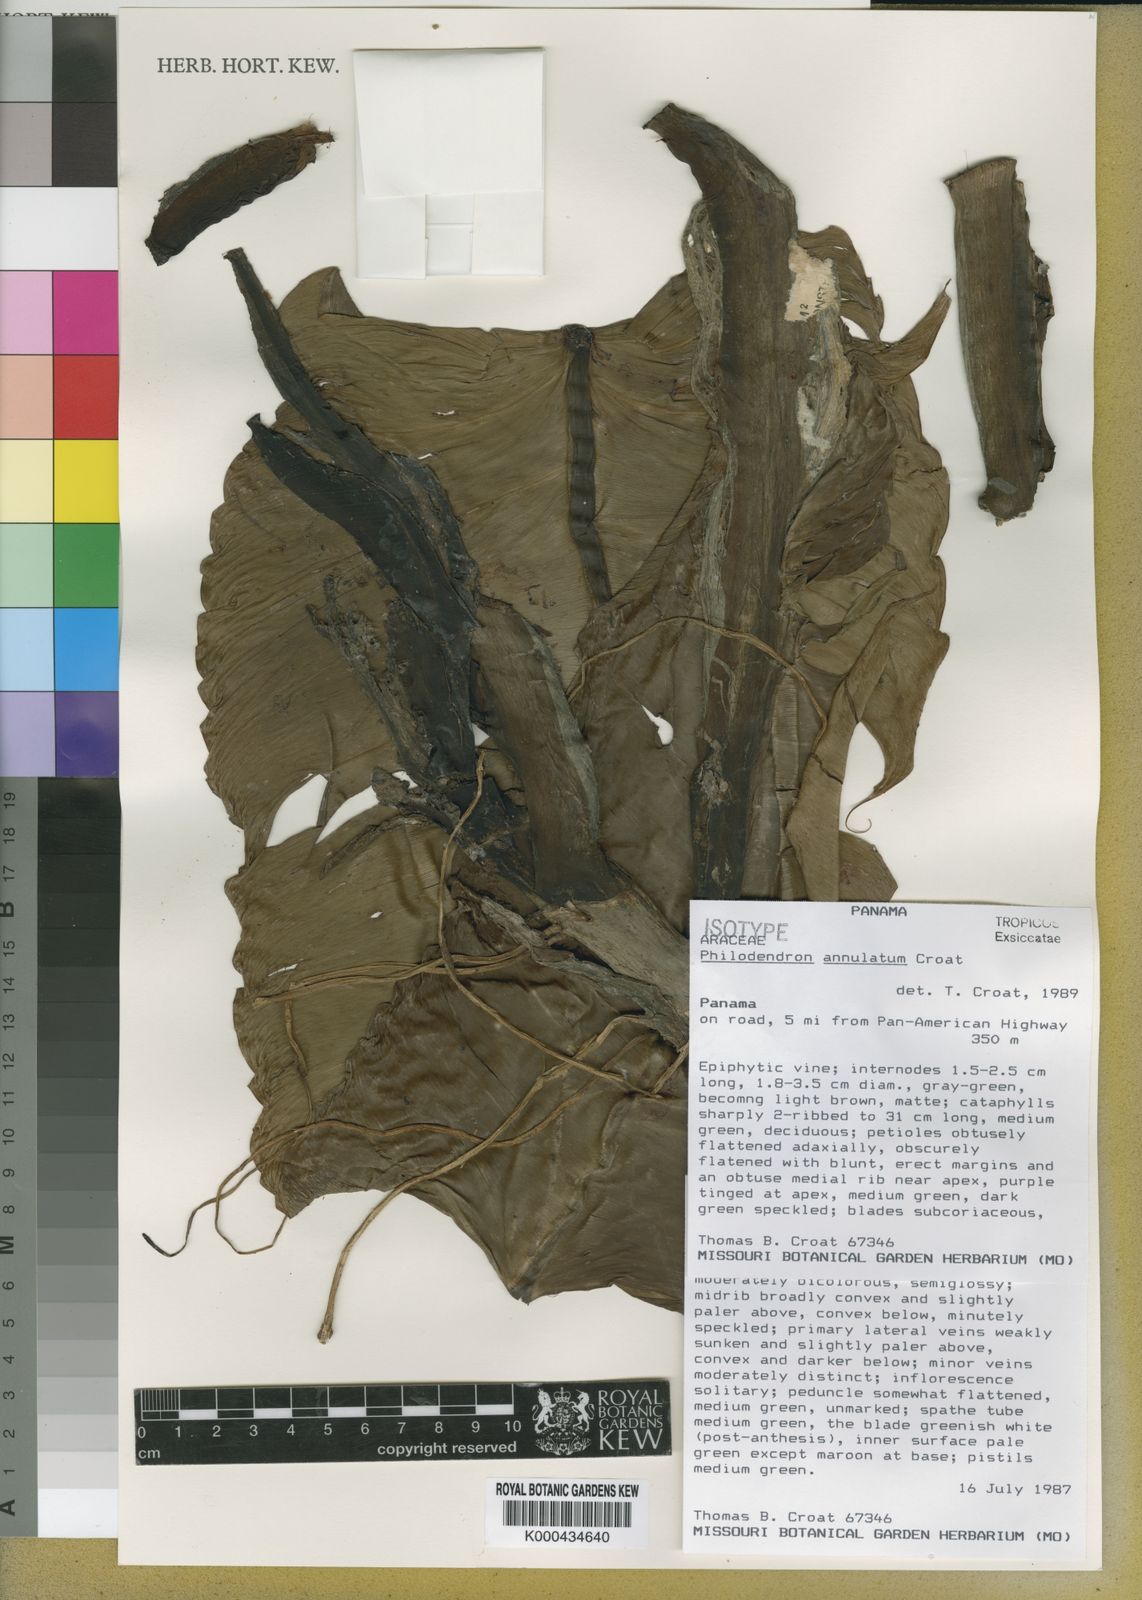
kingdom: Plantae
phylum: Tracheophyta
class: Liliopsida
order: Alismatales
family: Araceae
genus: Philodendron
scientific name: Philodendron annulatum
